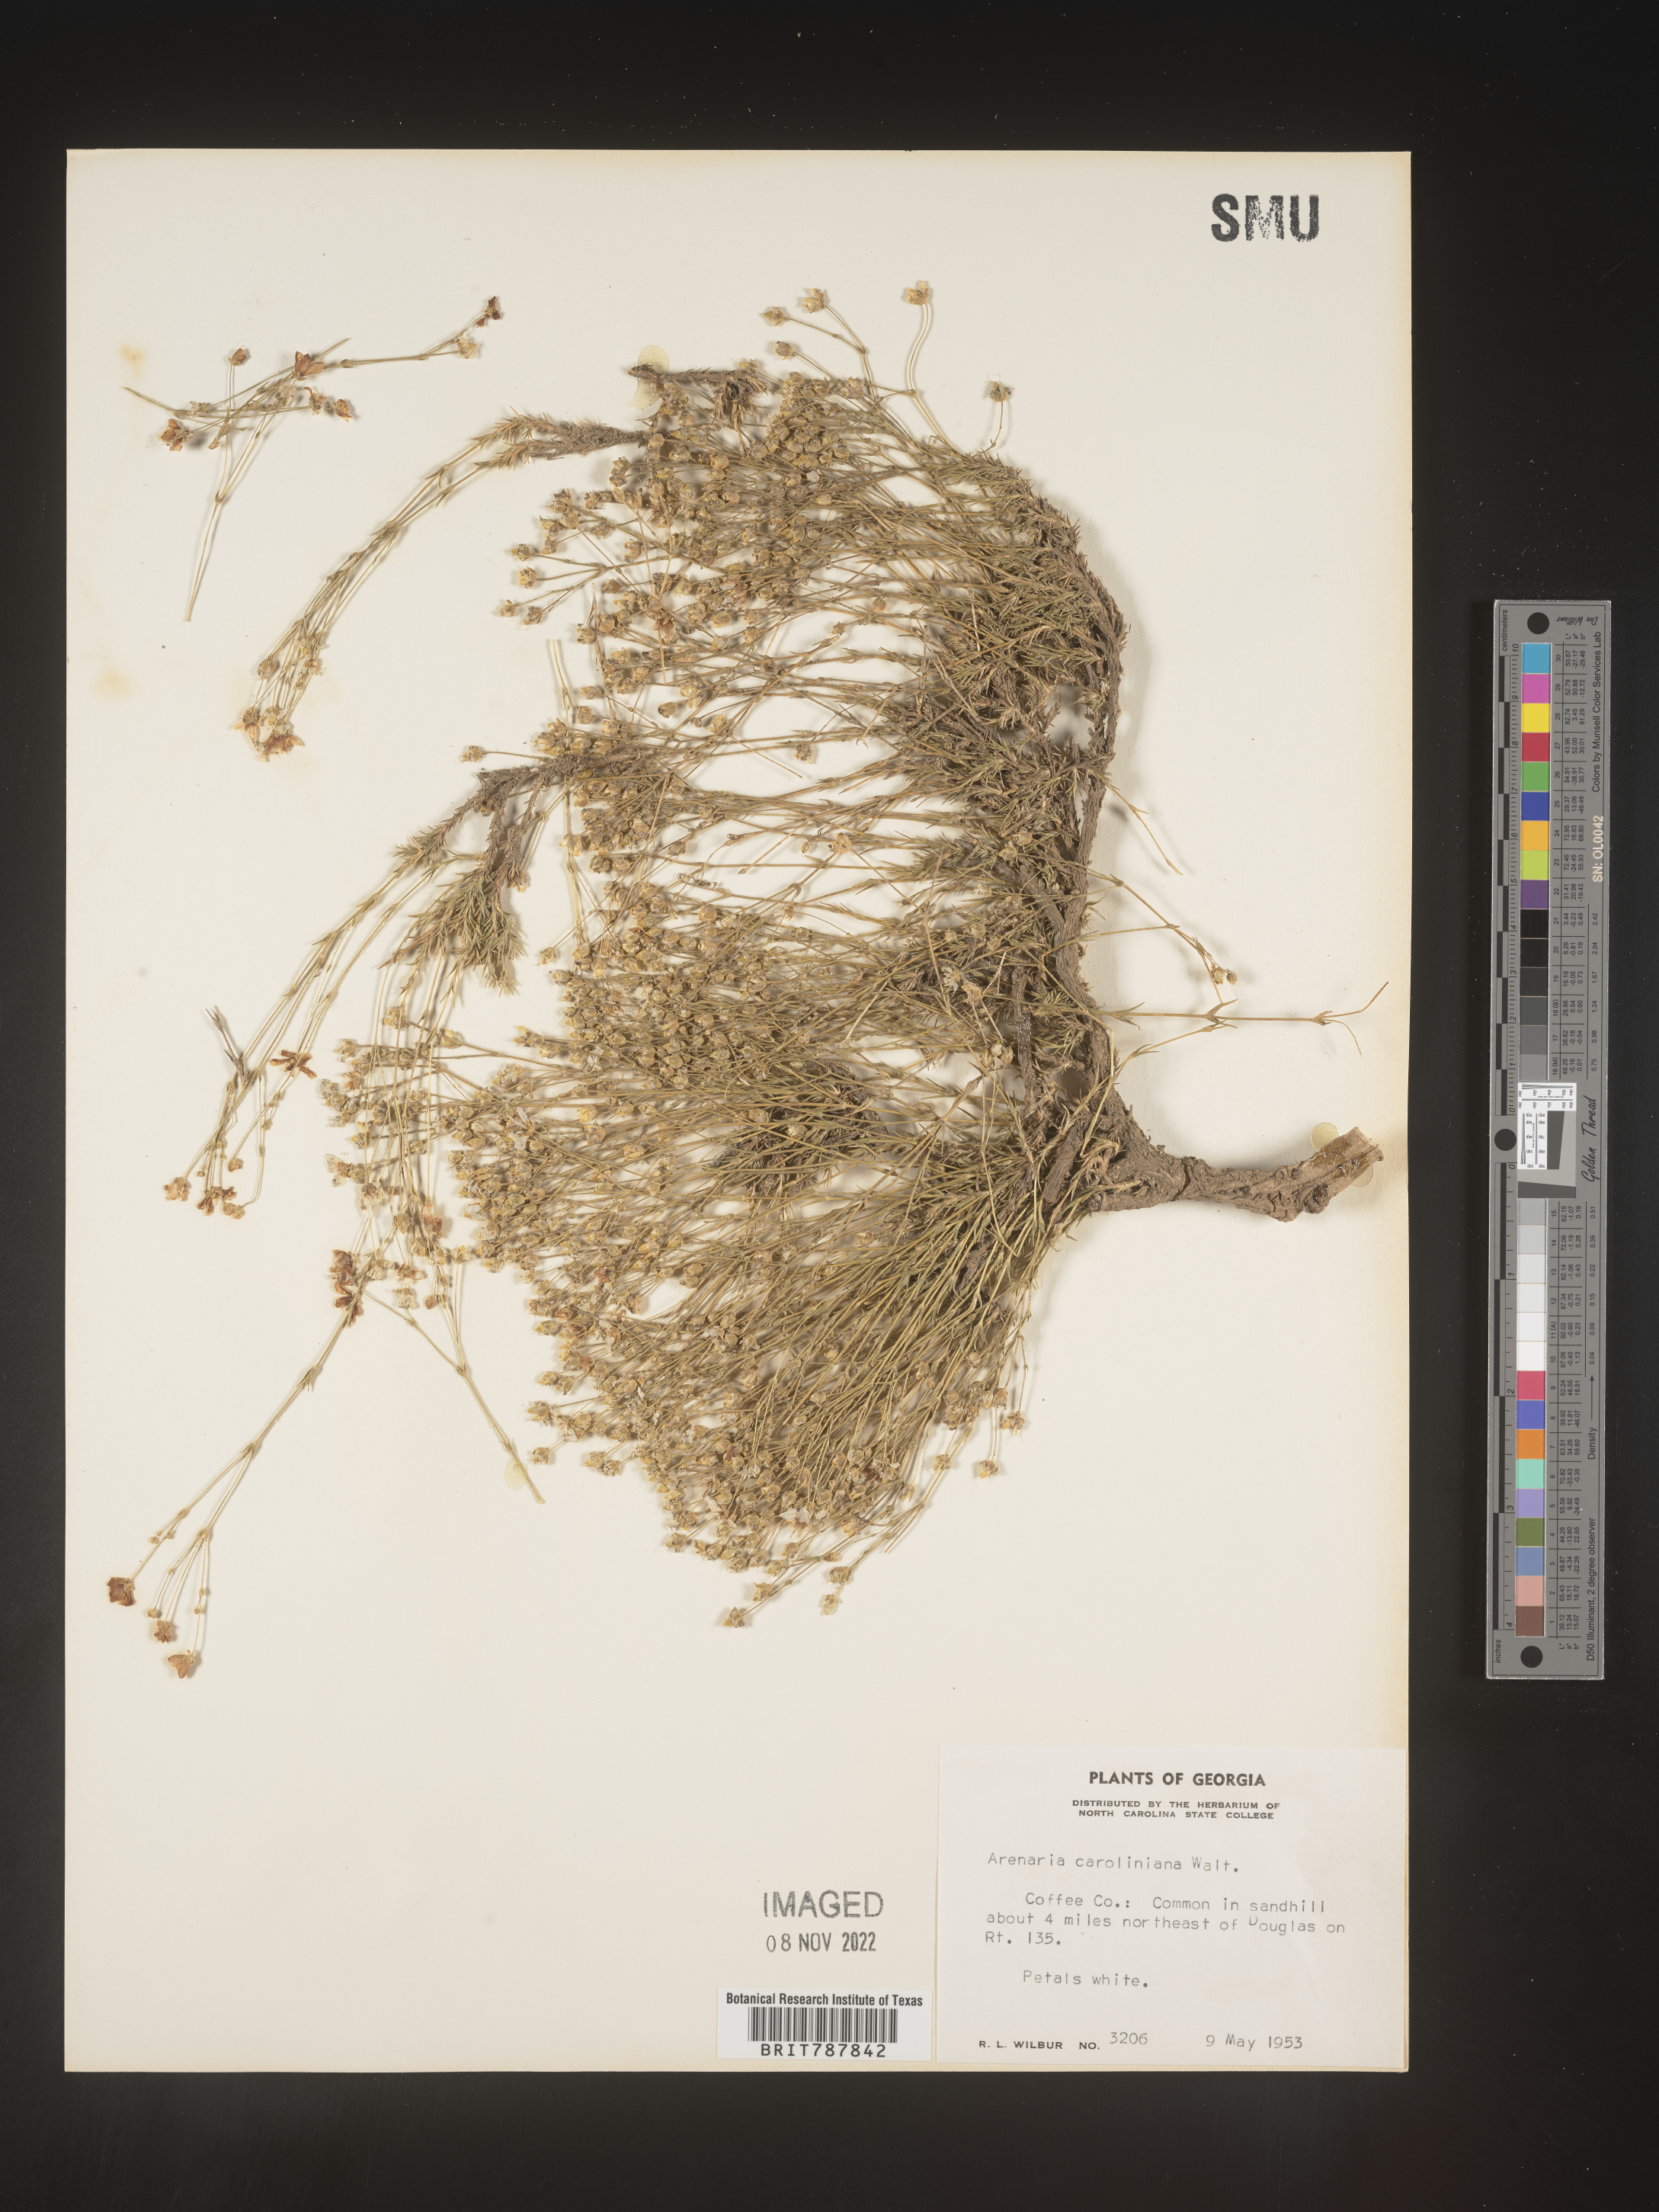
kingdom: Plantae
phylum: Tracheophyta
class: Magnoliopsida
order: Caryophyllales
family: Caryophyllaceae
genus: Arenaria
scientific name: Arenaria
